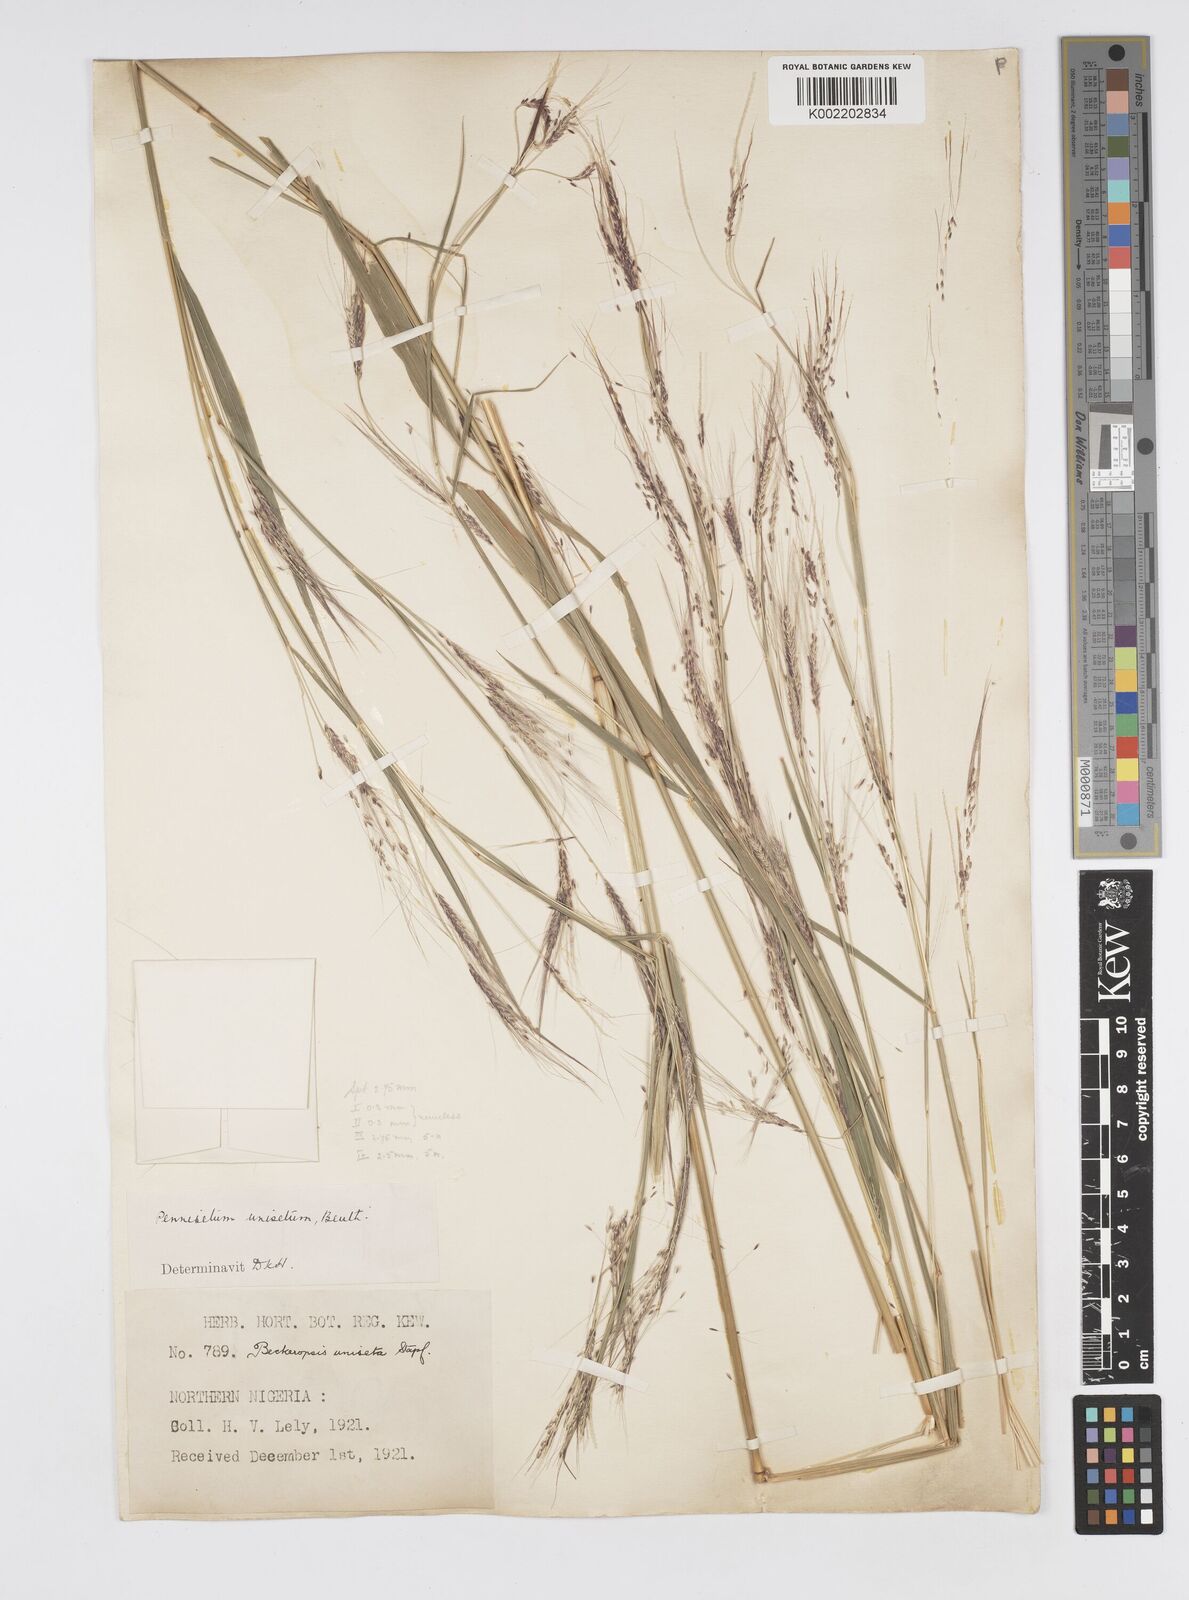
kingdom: Plantae
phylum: Tracheophyta
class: Liliopsida
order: Poales
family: Poaceae
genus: Cenchrus
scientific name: Cenchrus unisetus
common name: Natal grass
